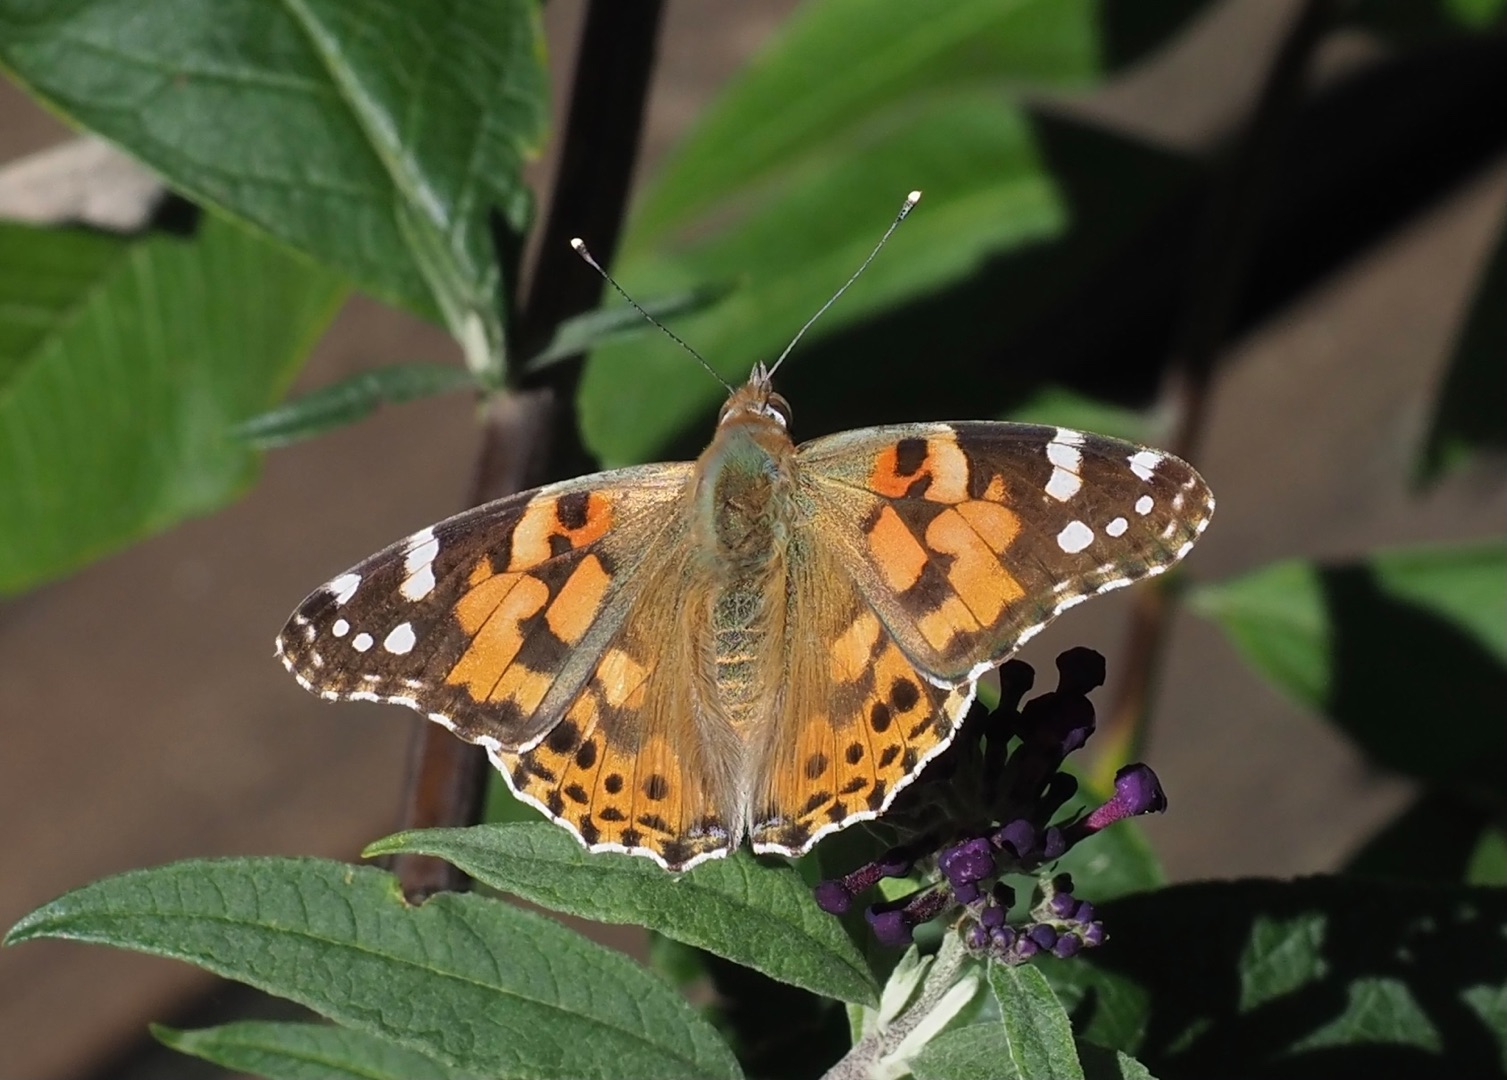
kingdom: Animalia
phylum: Arthropoda
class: Insecta
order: Lepidoptera
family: Nymphalidae
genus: Vanessa
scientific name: Vanessa cardui
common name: Tidselsommerfugl
